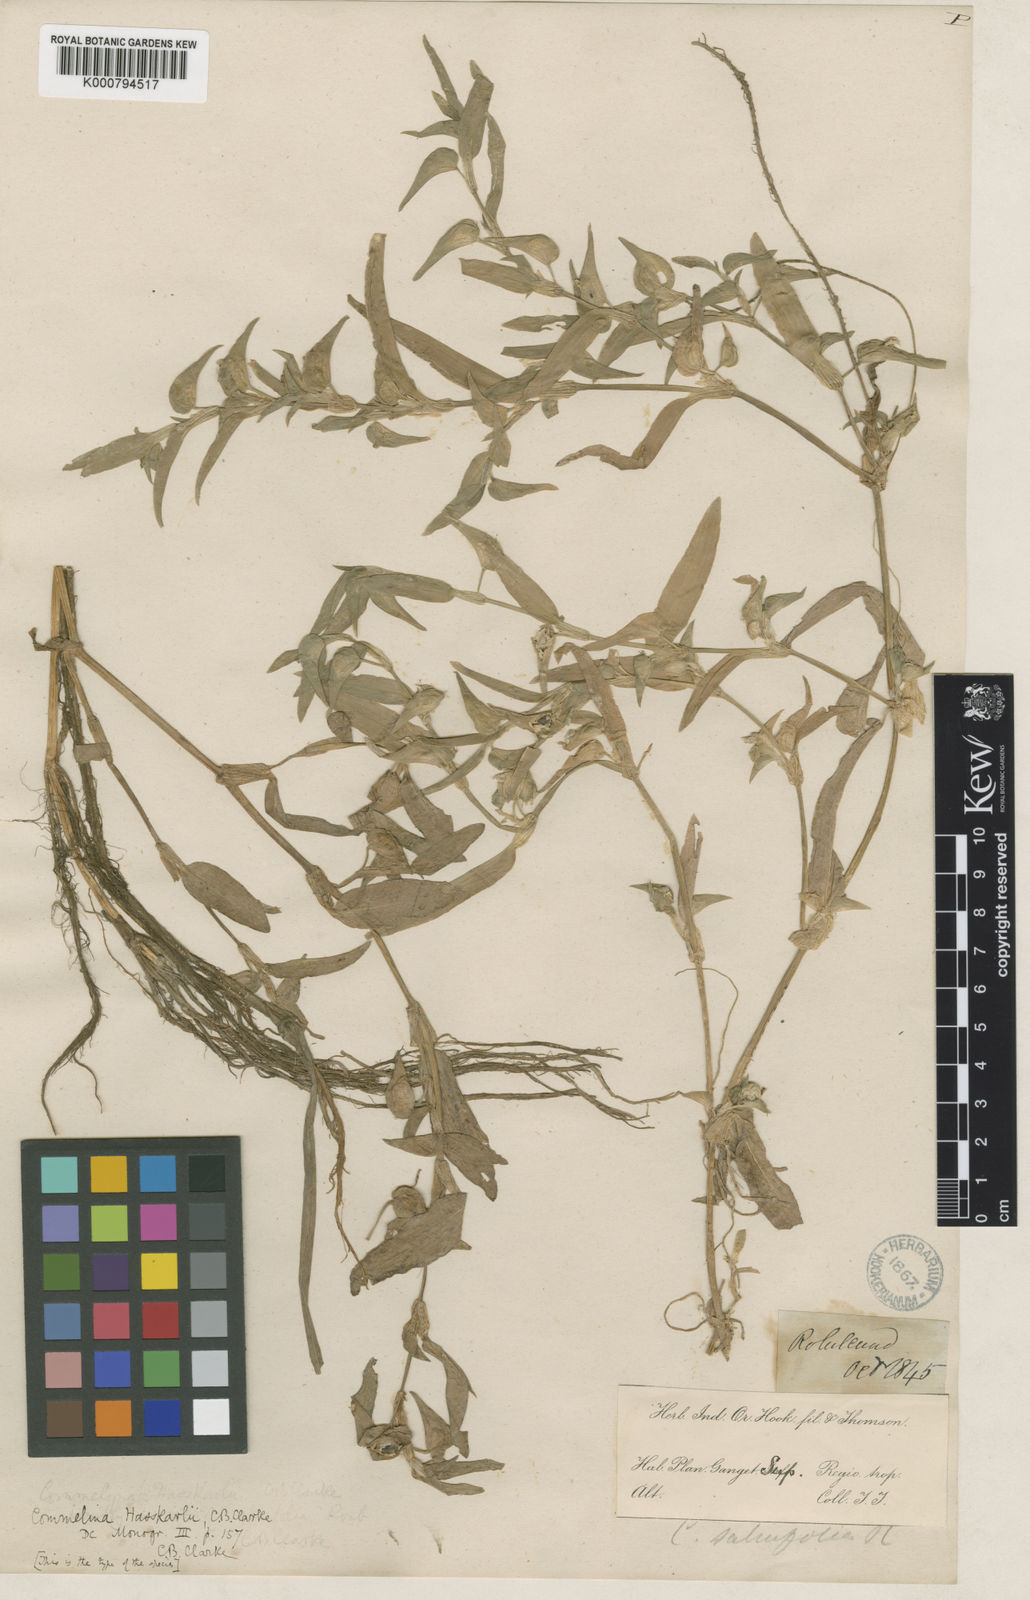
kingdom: Plantae
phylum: Tracheophyta
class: Liliopsida
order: Commelinales
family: Commelinaceae
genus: Commelina
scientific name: Commelina caroliniana
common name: Carolina dayflower
